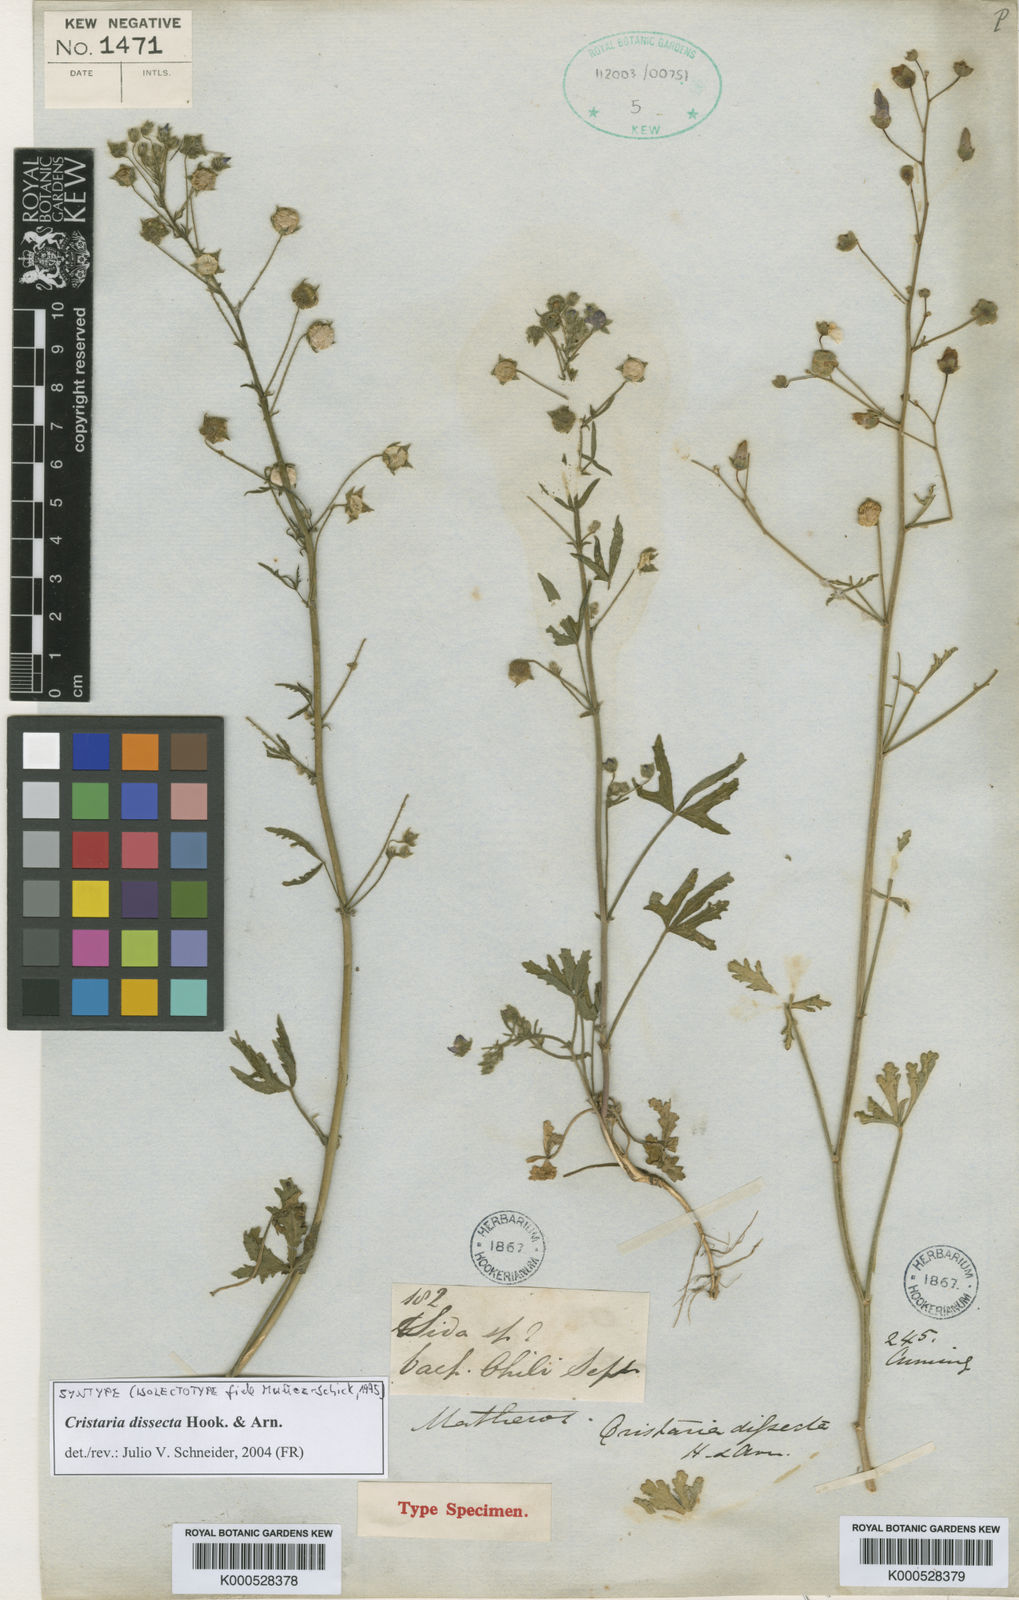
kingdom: Plantae
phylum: Tracheophyta
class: Magnoliopsida
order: Malvales
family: Malvaceae
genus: Cristaria
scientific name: Cristaria dissecta
